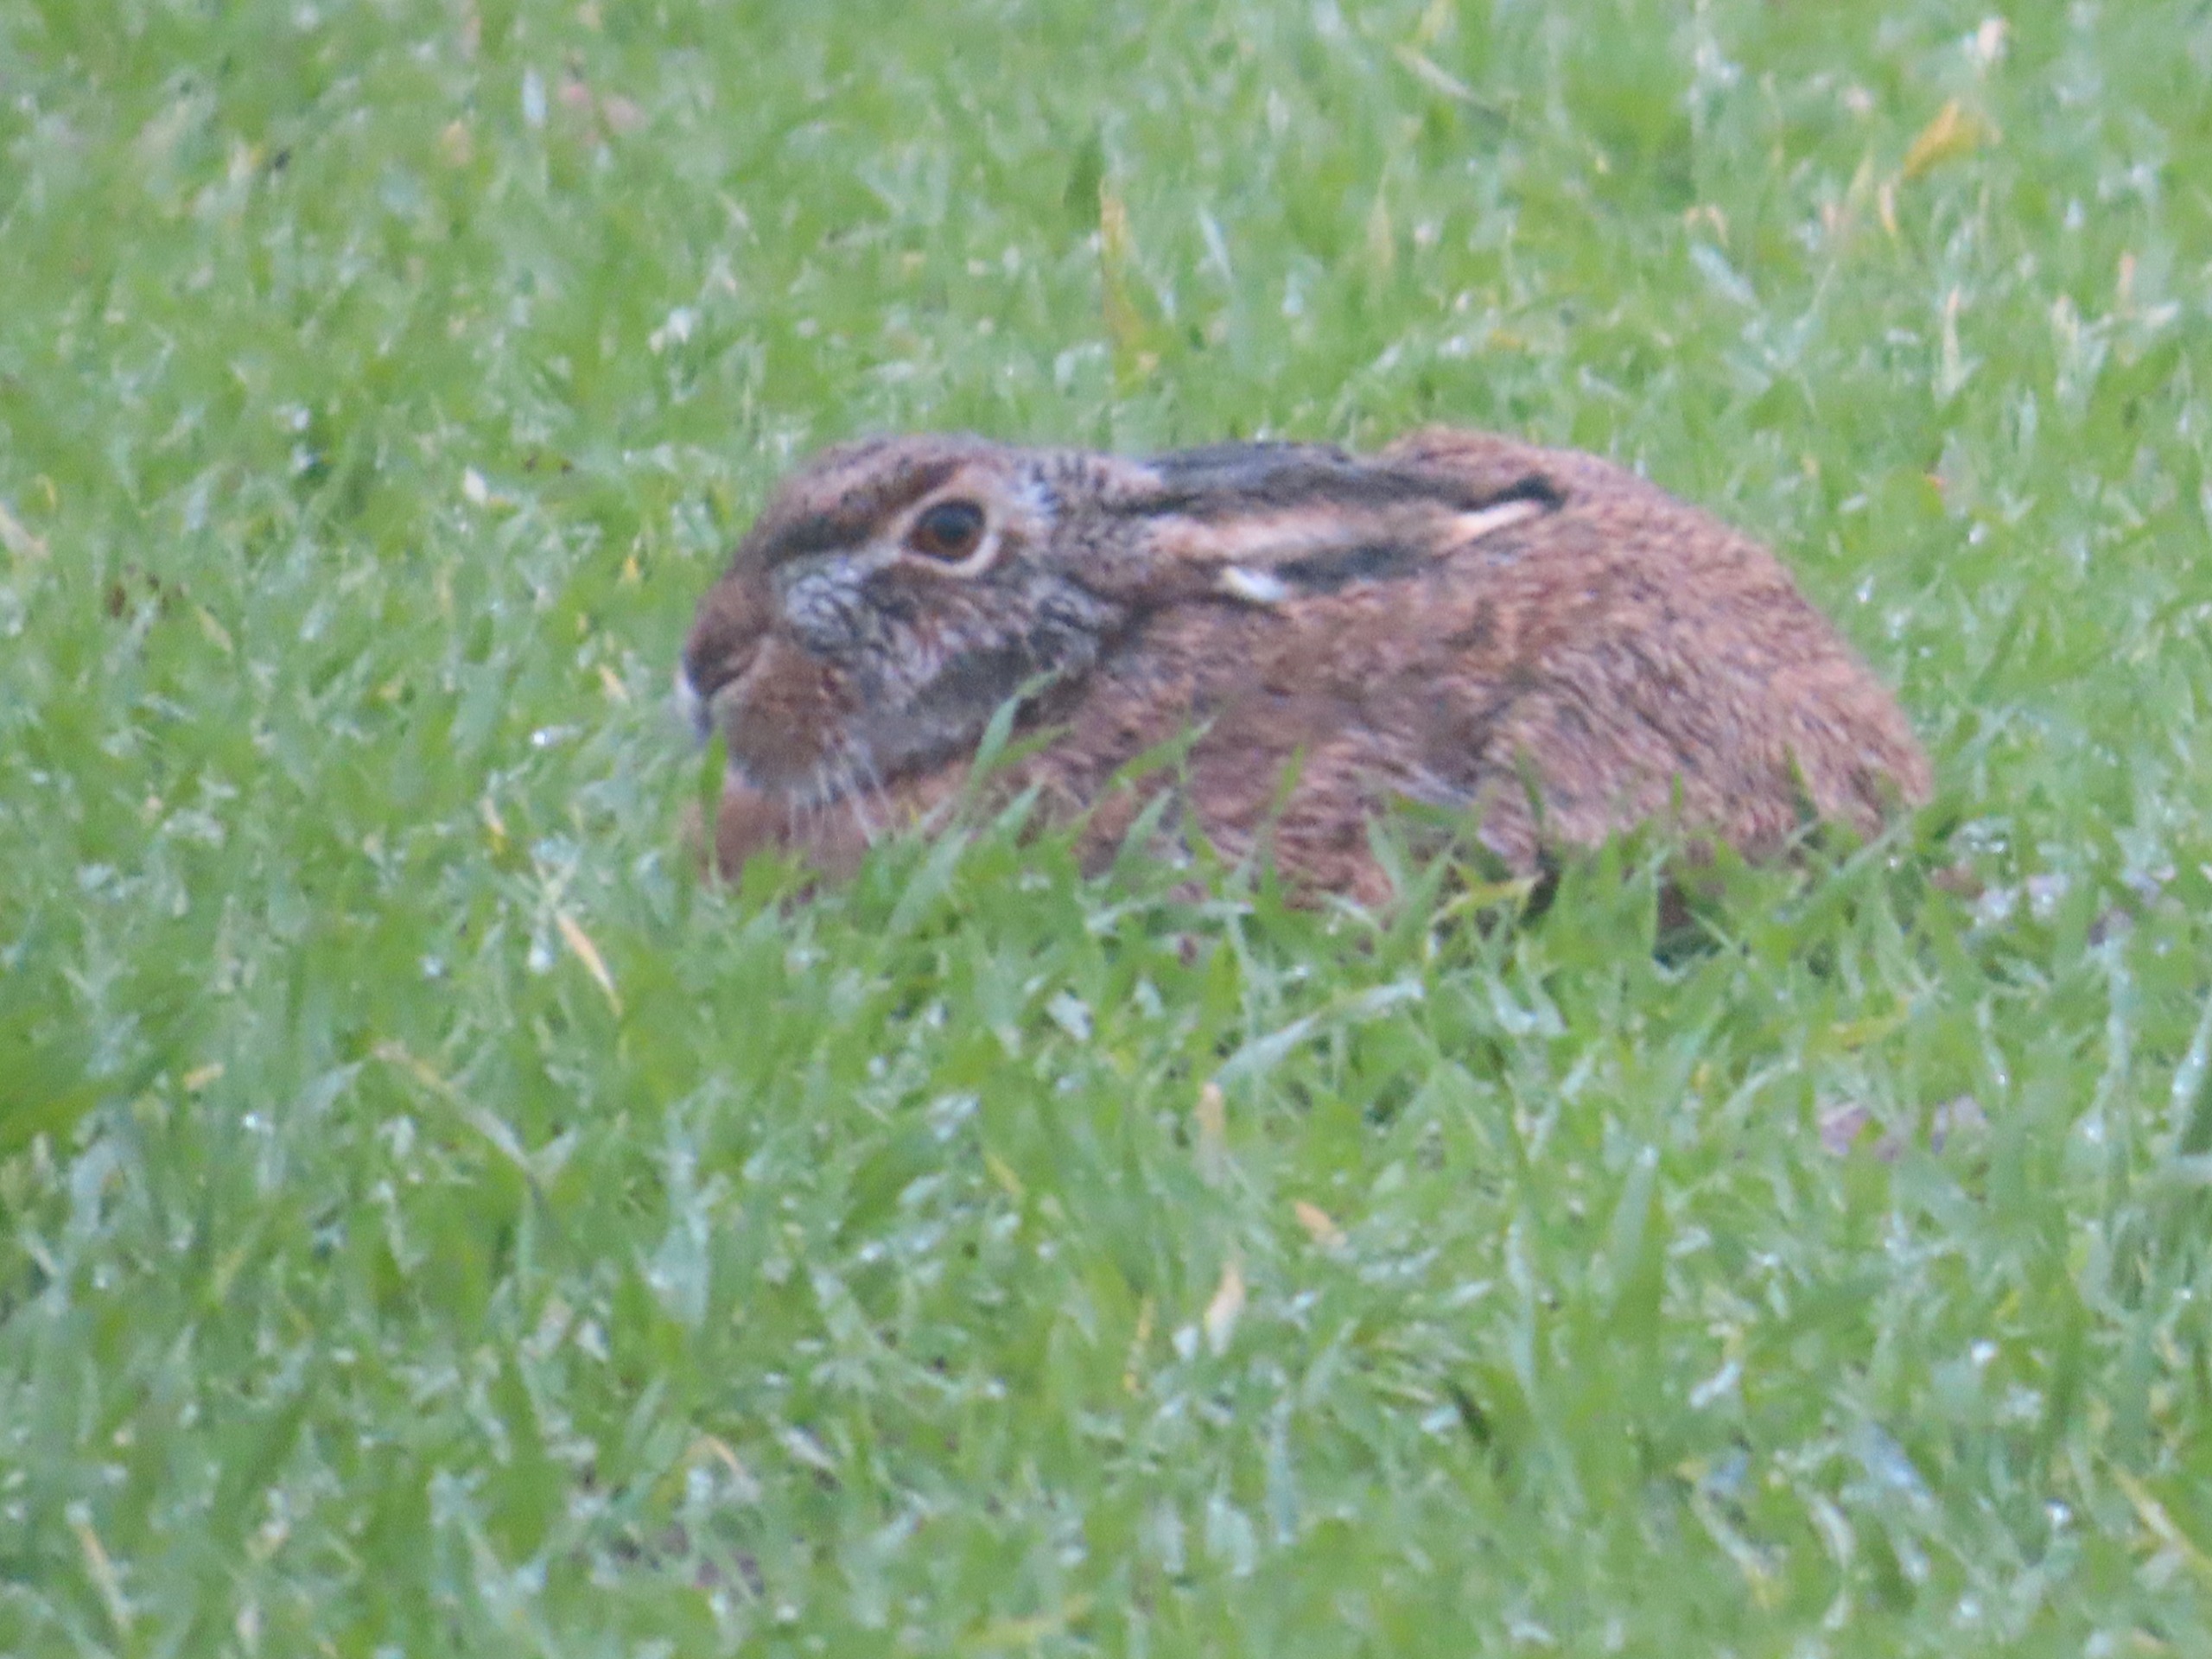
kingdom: Animalia
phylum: Chordata
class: Mammalia
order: Lagomorpha
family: Leporidae
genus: Lepus
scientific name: Lepus europaeus
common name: Hare
